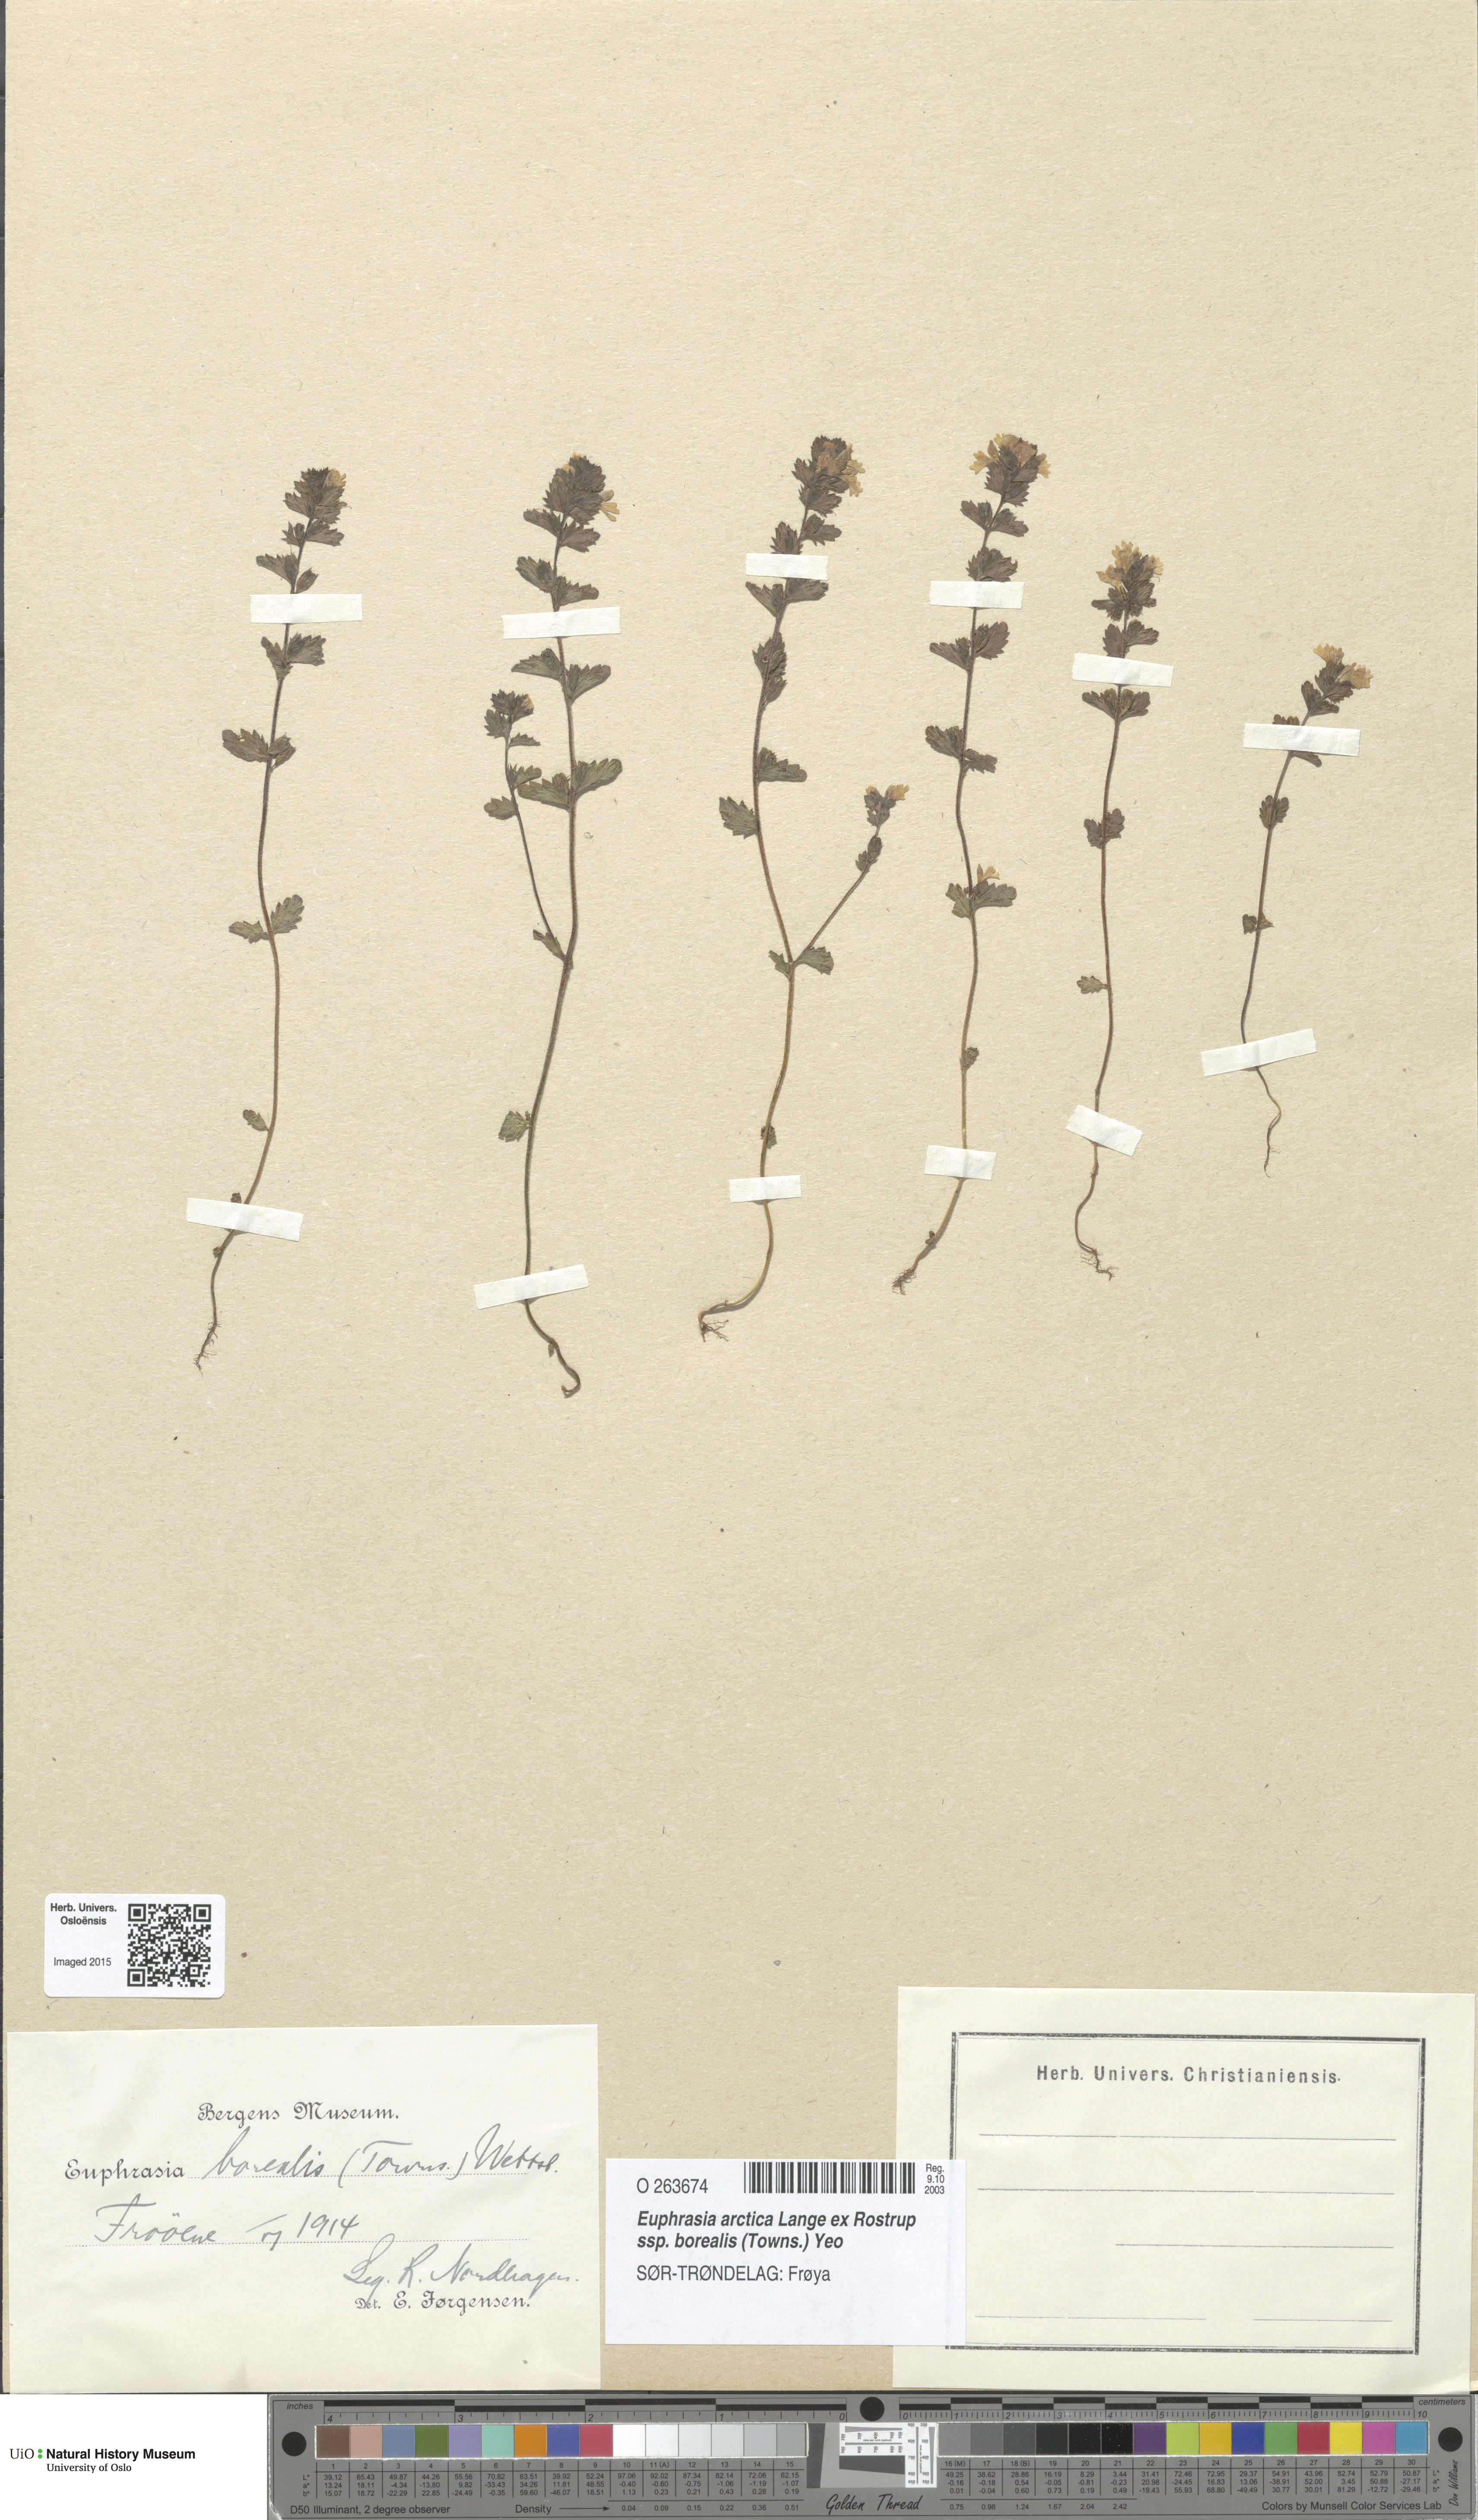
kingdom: Plantae
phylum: Tracheophyta
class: Magnoliopsida
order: Lamiales
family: Orobanchaceae
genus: Euphrasia
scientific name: Euphrasia arctica
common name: An eyebright
